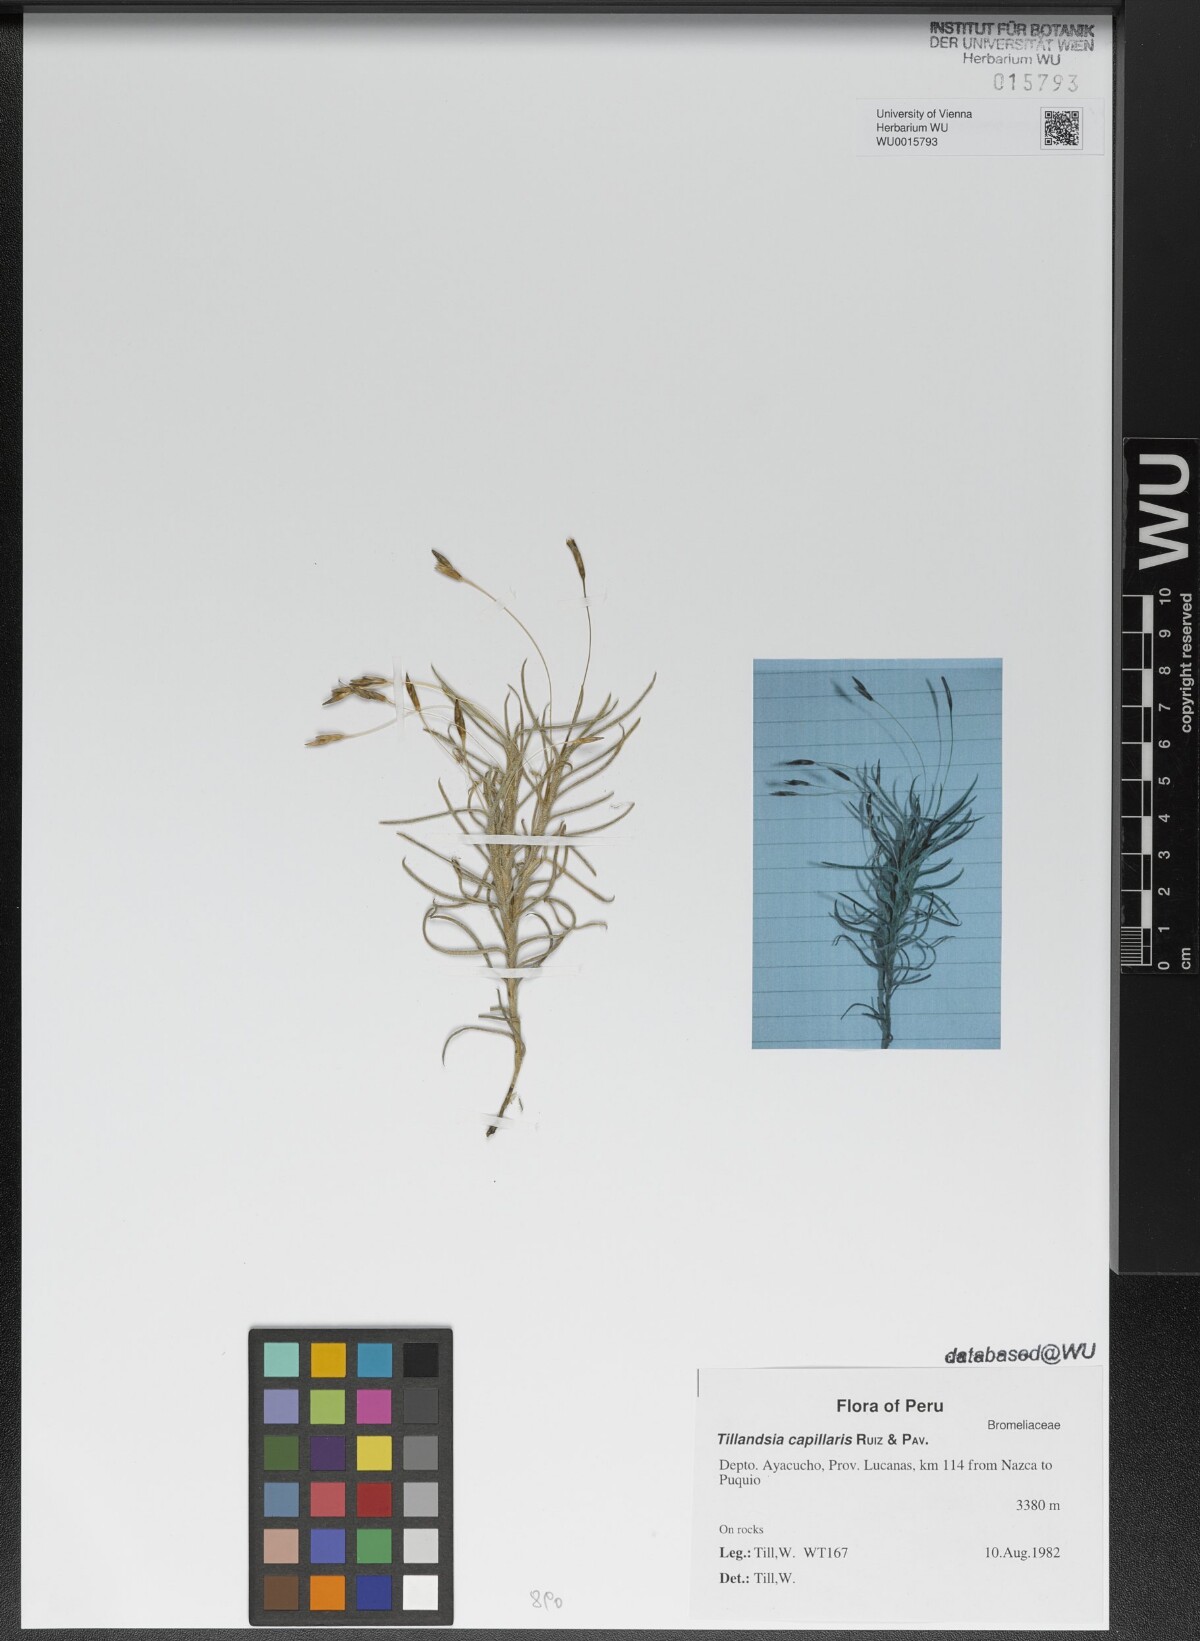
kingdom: Plantae
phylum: Tracheophyta
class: Liliopsida
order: Poales
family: Bromeliaceae
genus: Tillandsia
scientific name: Tillandsia capillaris
